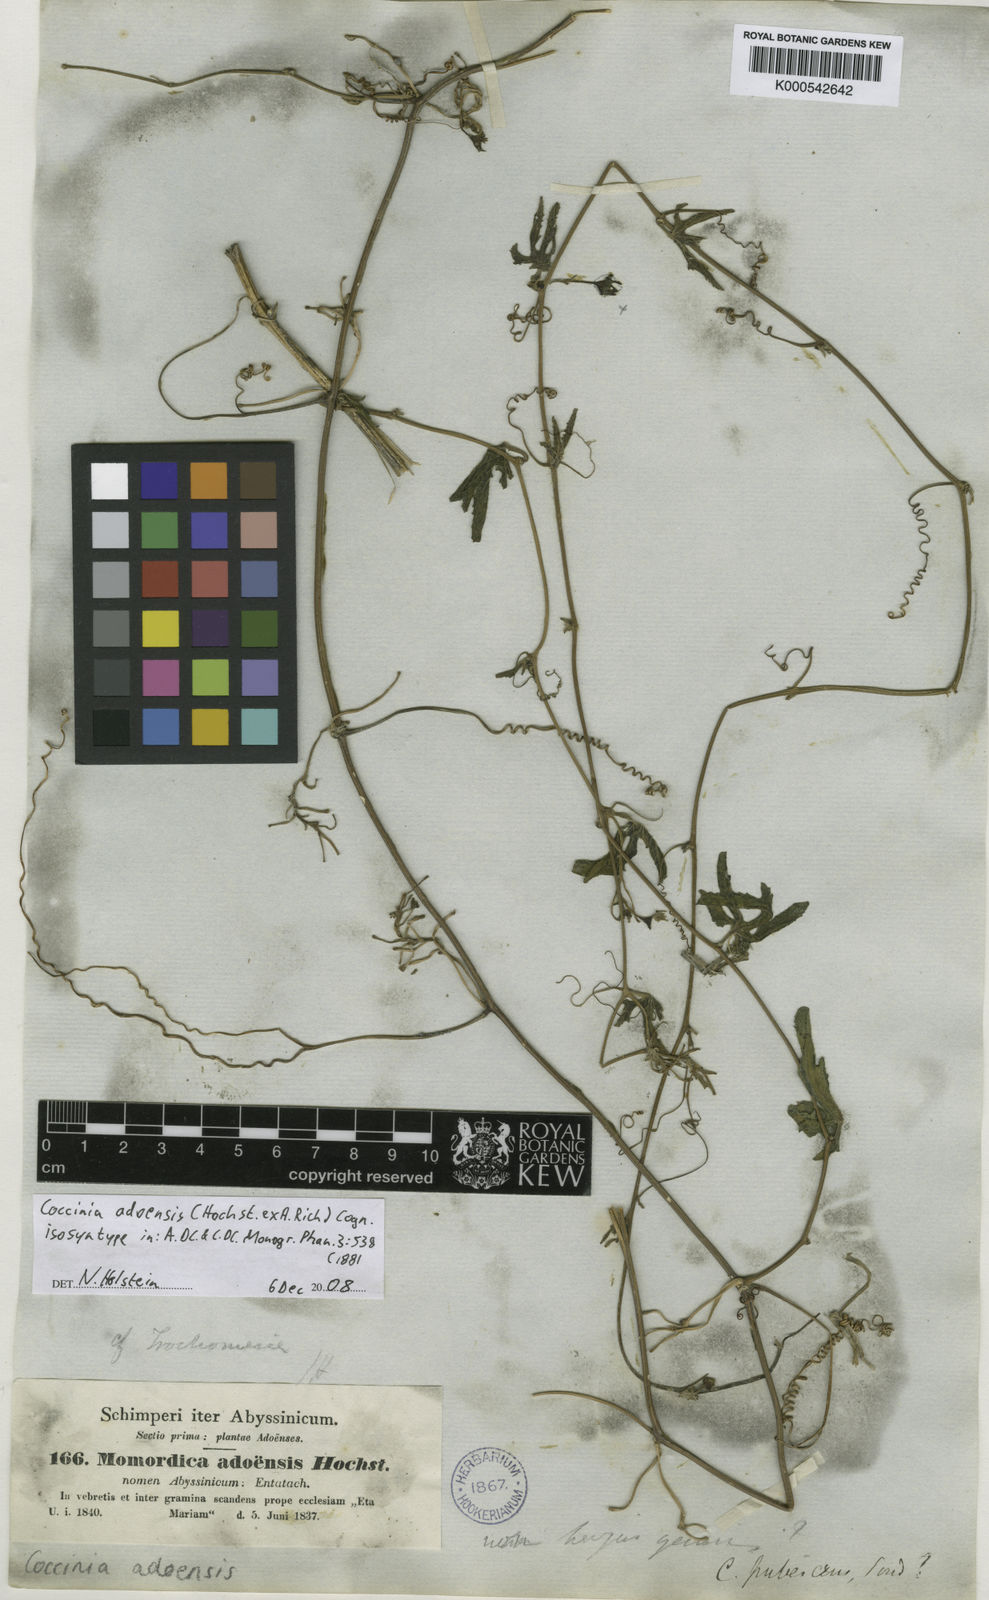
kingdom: Plantae
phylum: Tracheophyta
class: Magnoliopsida
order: Cucurbitales
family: Cucurbitaceae
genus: Coccinia
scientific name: Coccinia adoensis
